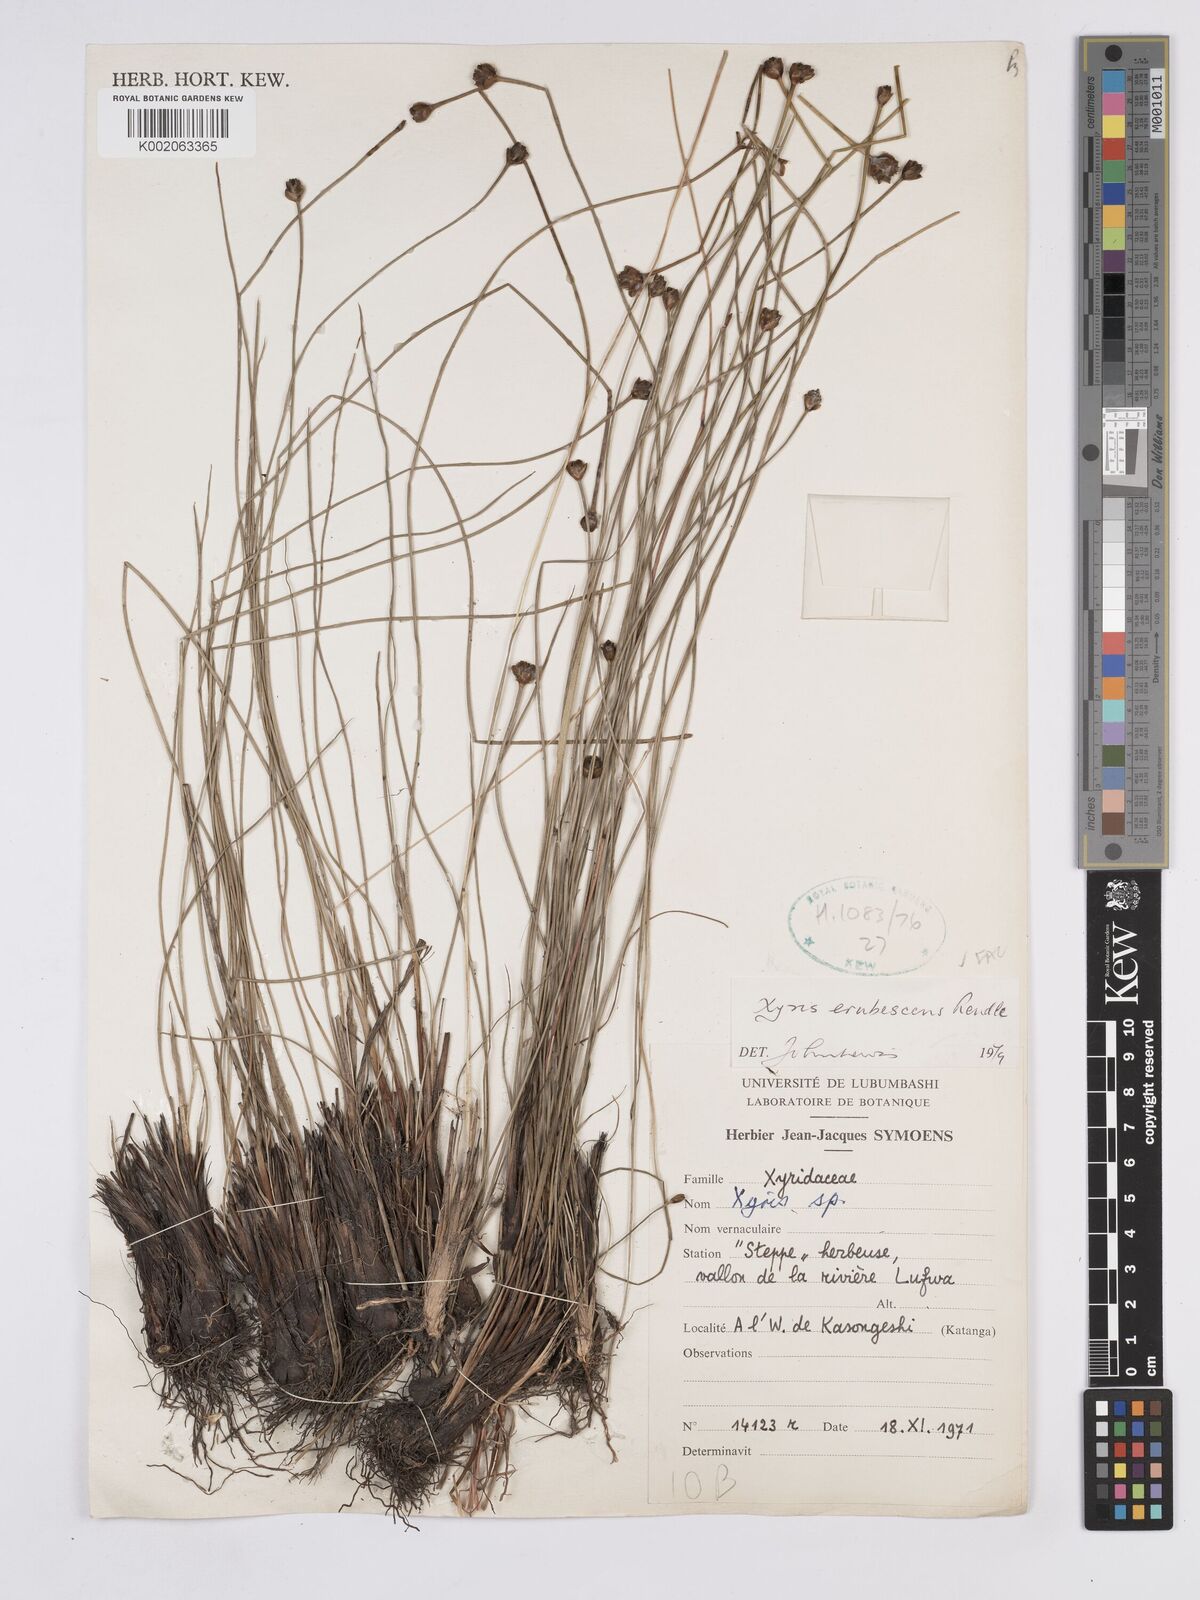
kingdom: Plantae
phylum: Tracheophyta
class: Liliopsida
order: Poales
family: Xyridaceae
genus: Xyris
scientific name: Xyris erubescens
